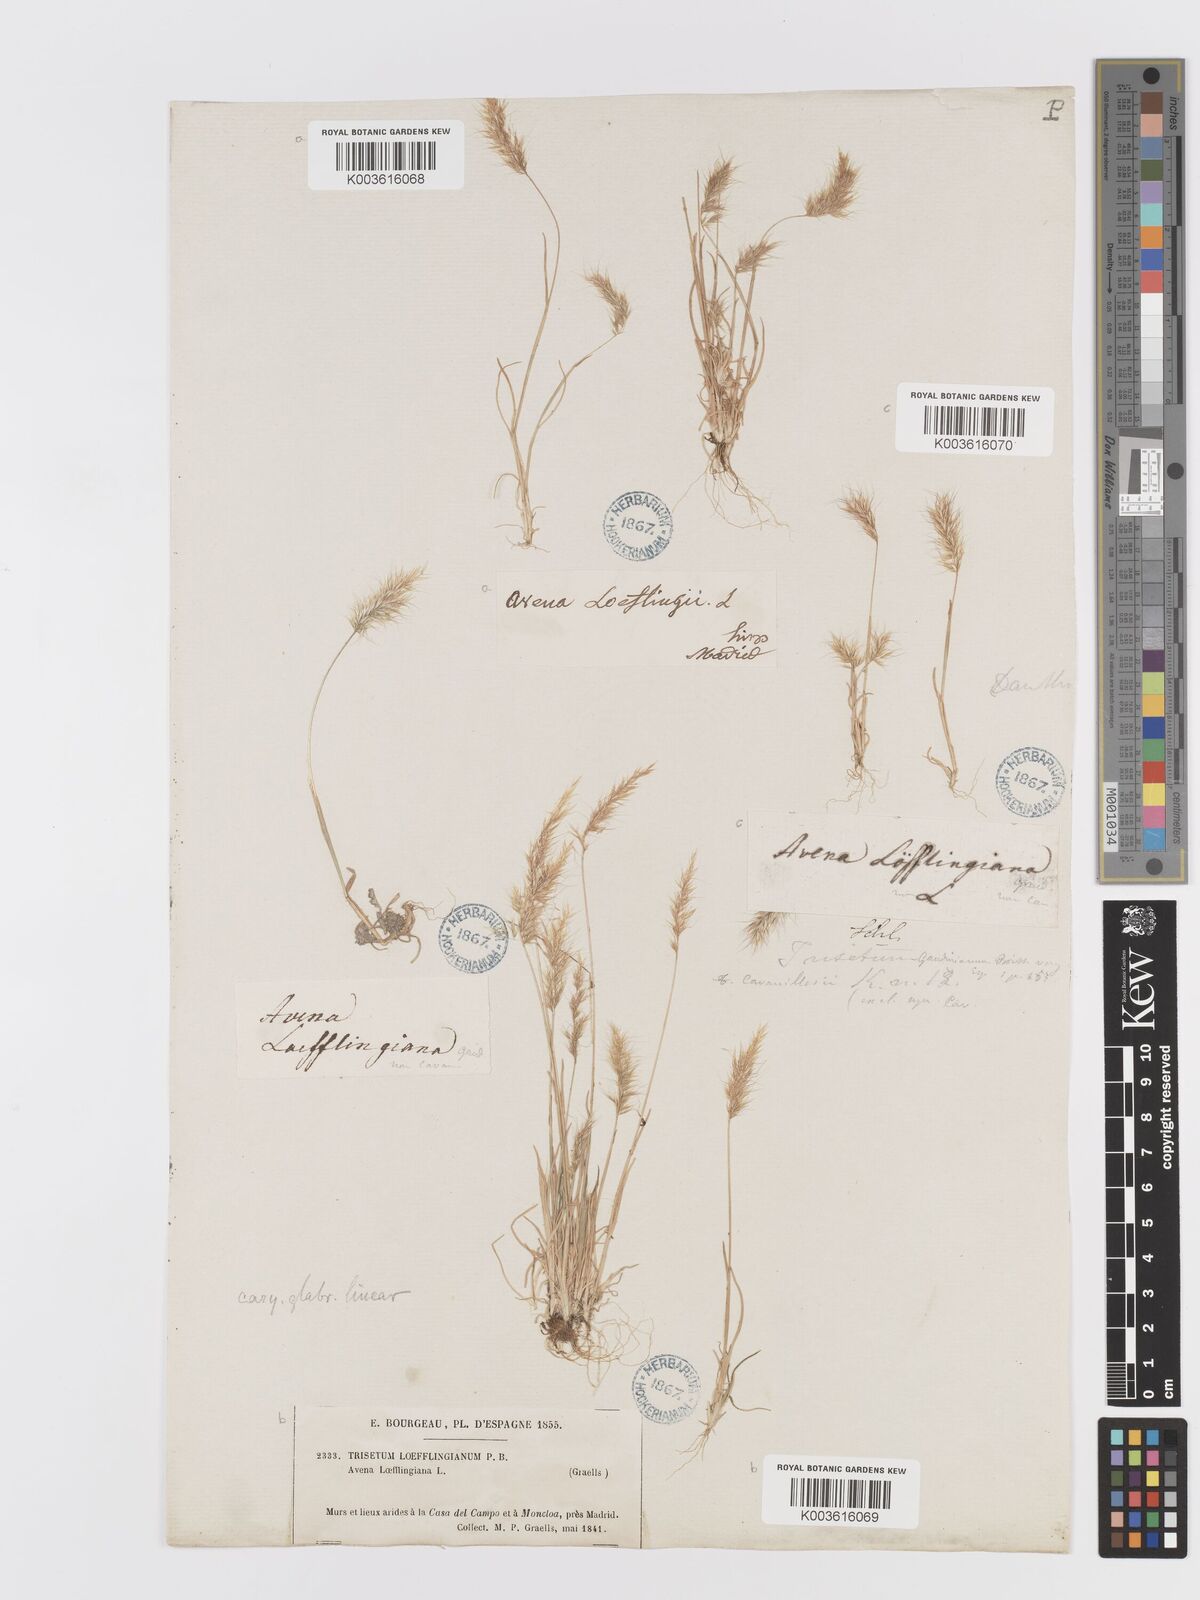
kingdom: Plantae
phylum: Tracheophyta
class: Liliopsida
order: Poales
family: Poaceae
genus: Trisetaria
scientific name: Trisetaria loeflingiana
